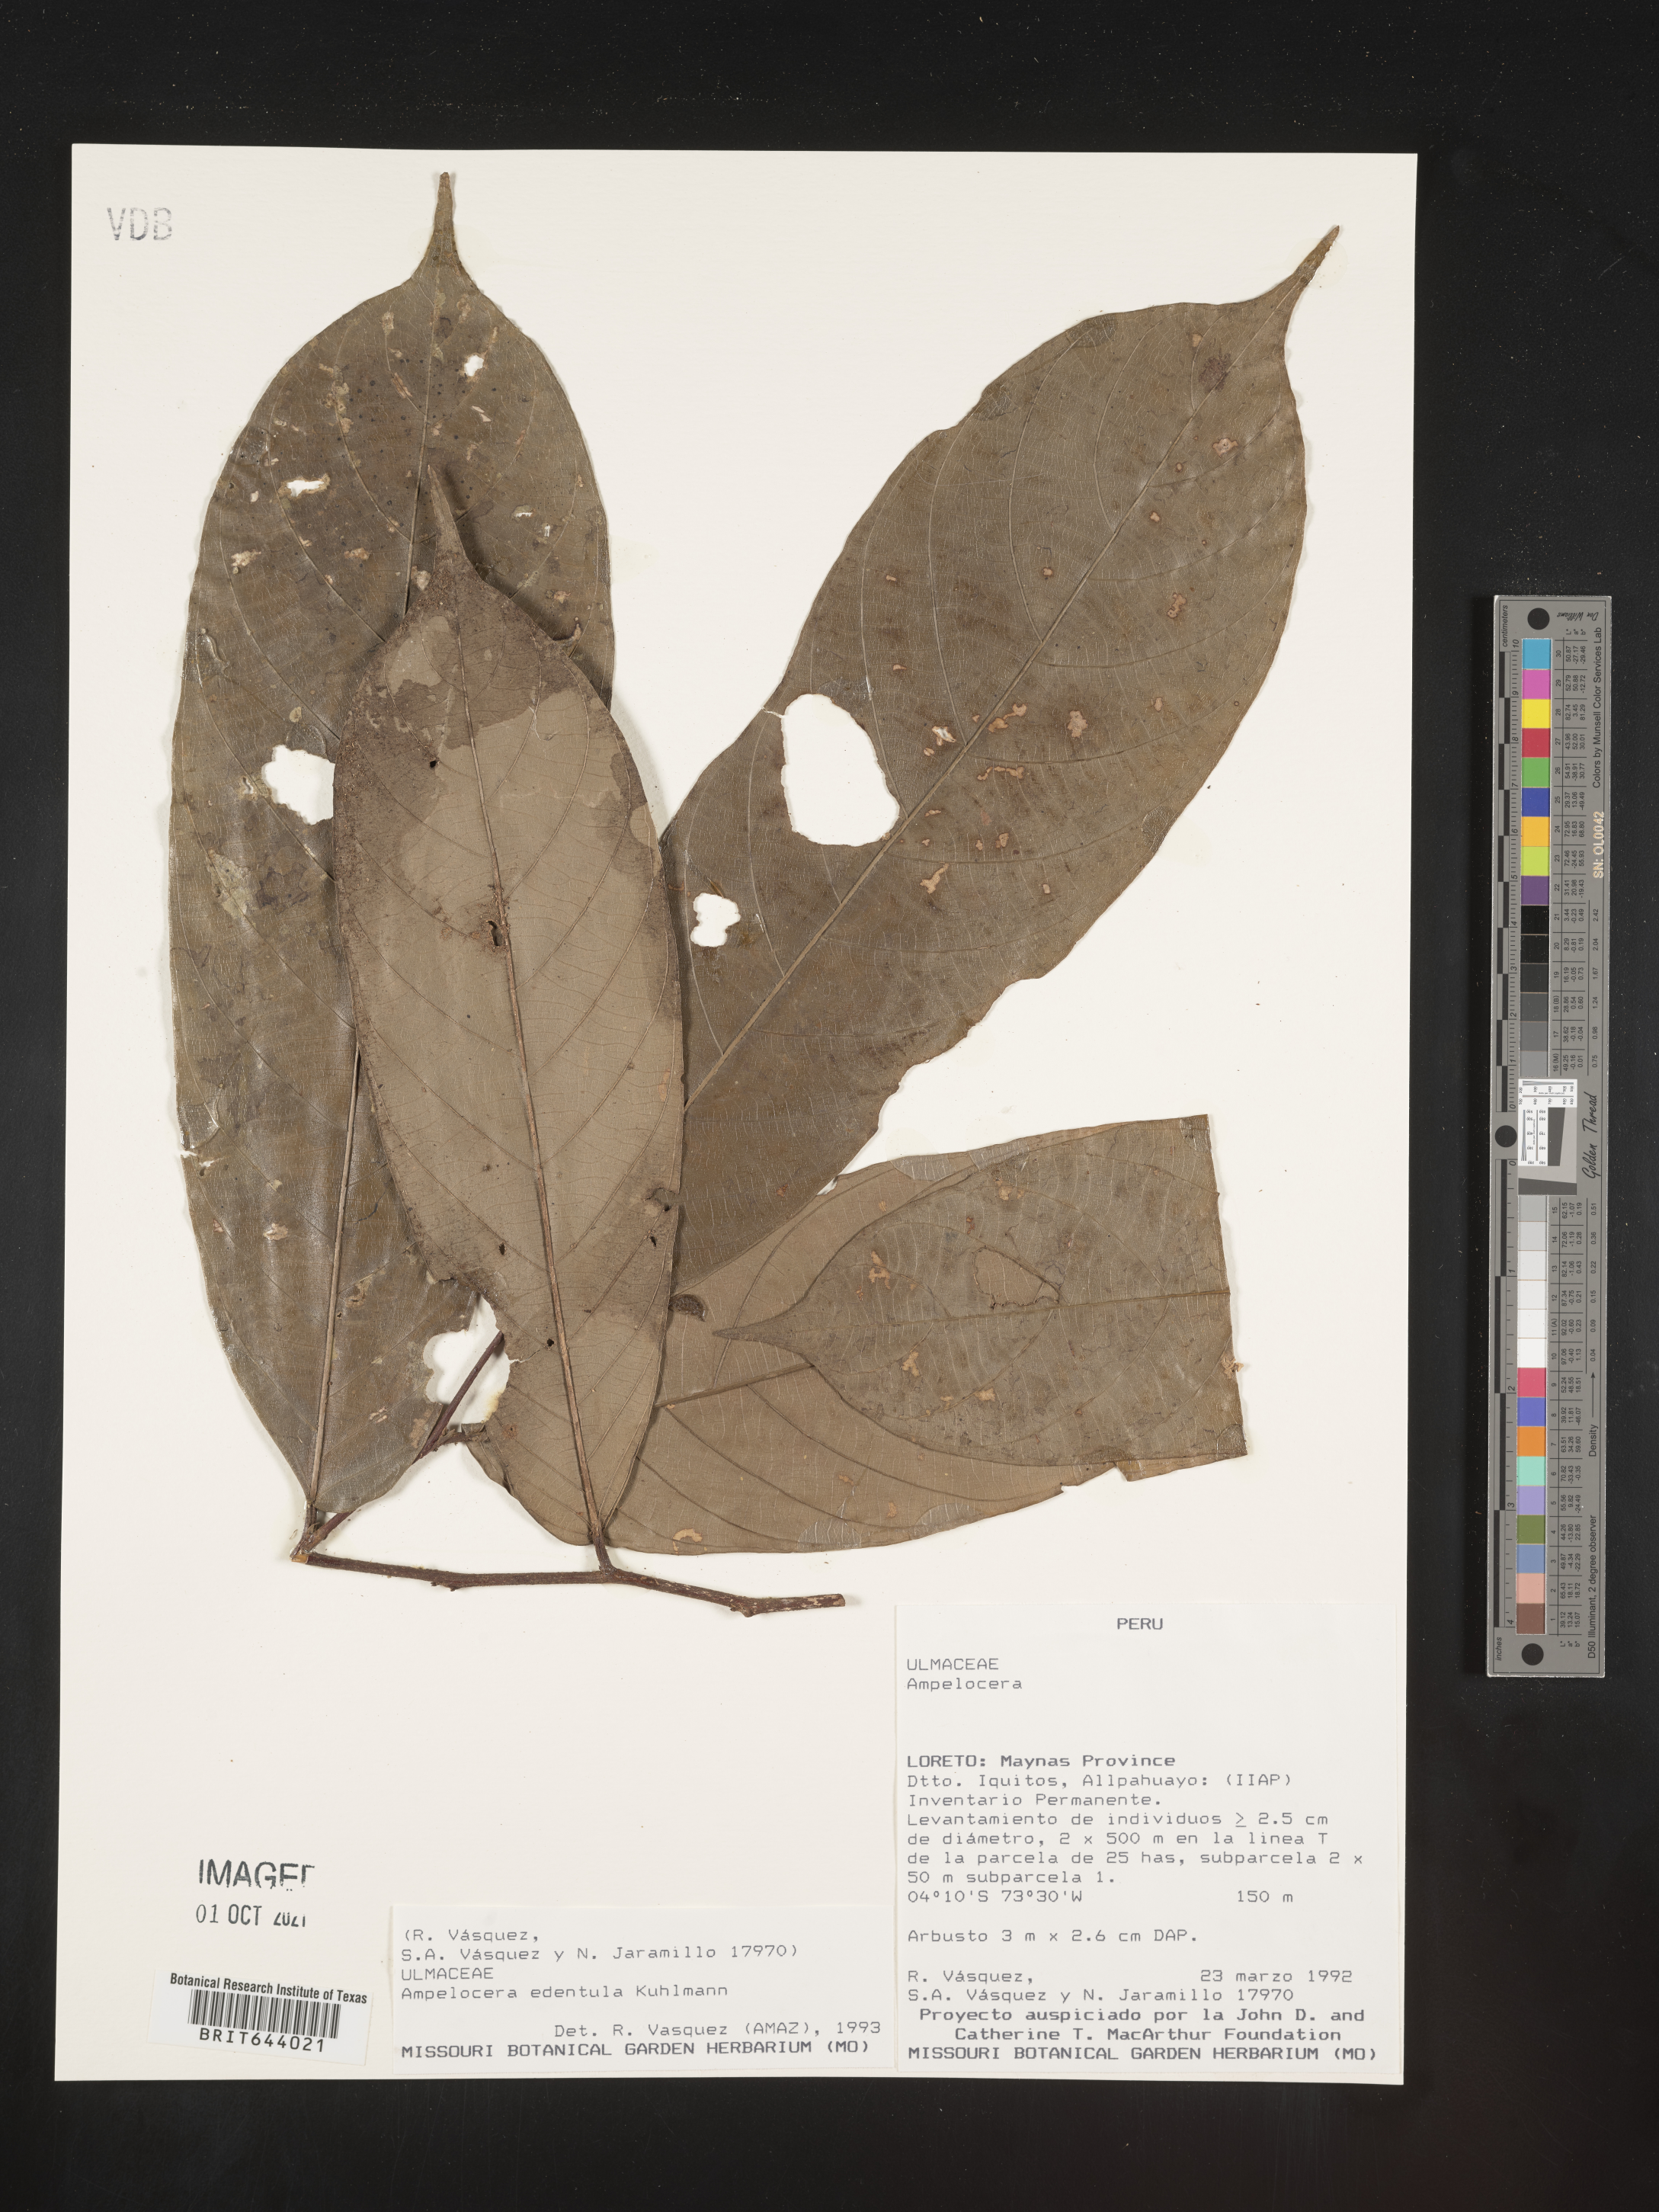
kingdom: Plantae
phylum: Tracheophyta
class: Magnoliopsida
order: Rosales
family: Cannabaceae
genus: Ampelocera
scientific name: Ampelocera
